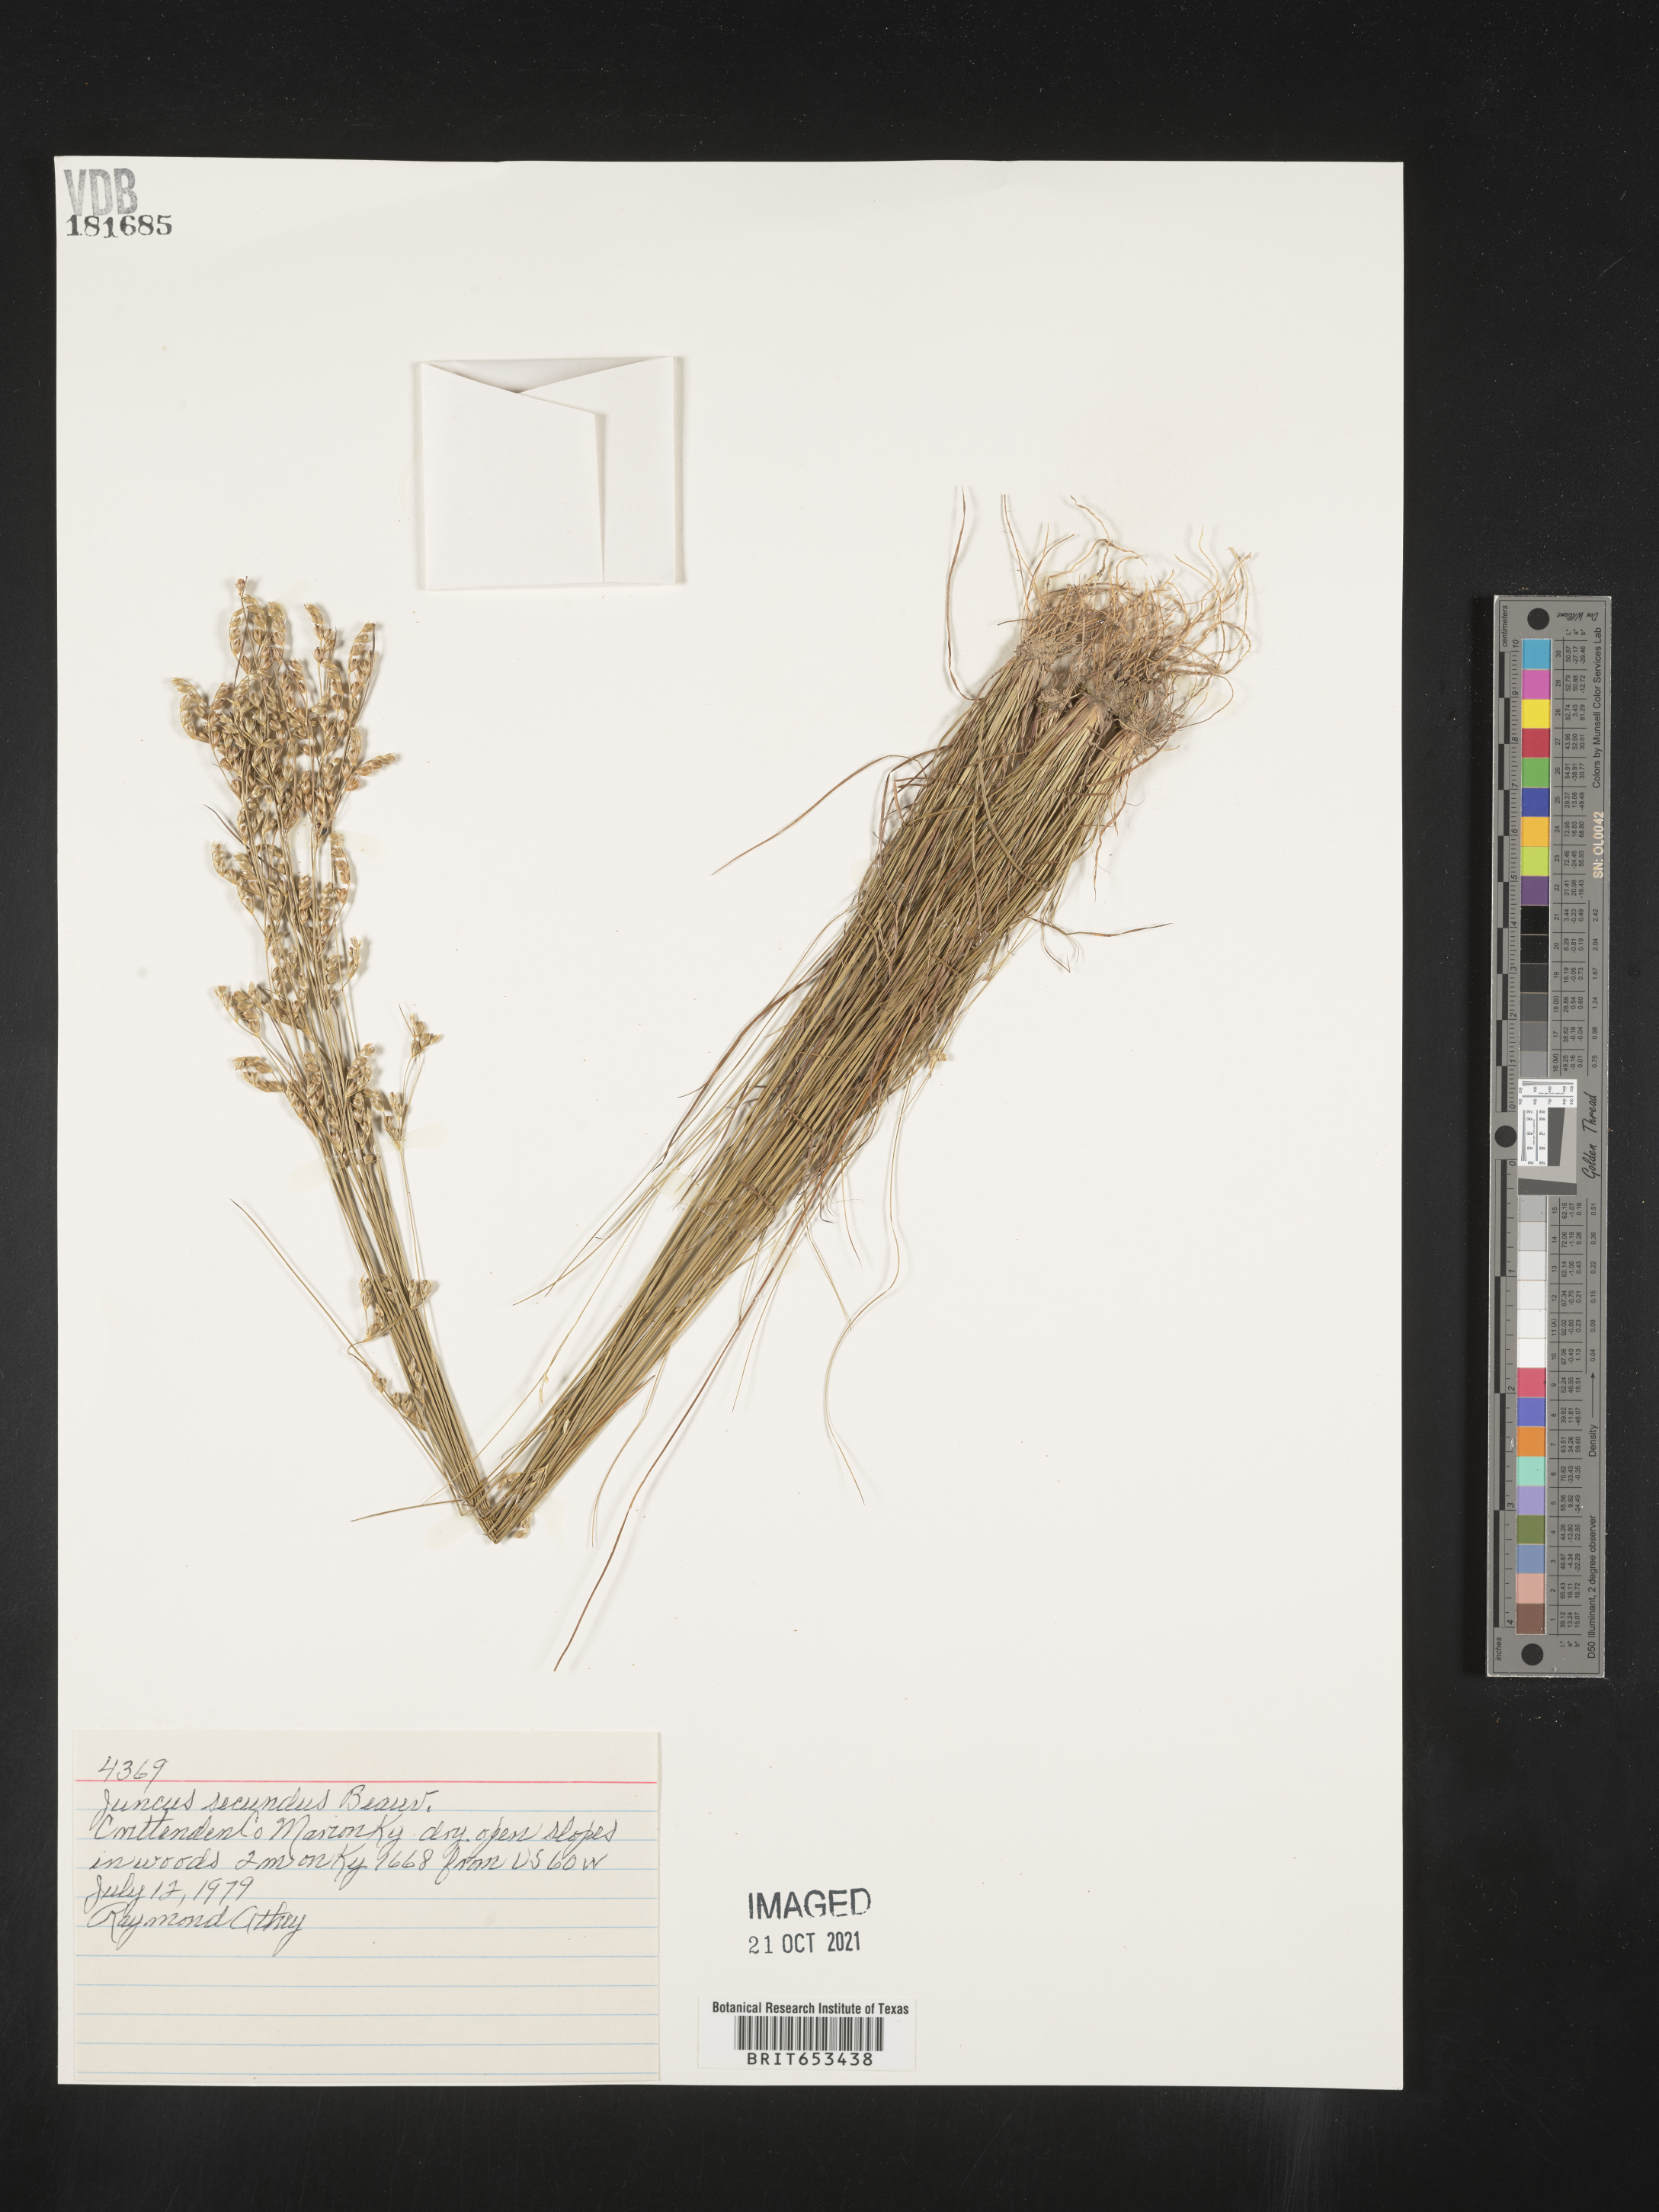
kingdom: Plantae
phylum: Tracheophyta
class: Liliopsida
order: Poales
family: Juncaceae
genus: Juncus
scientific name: Juncus secundus
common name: Lopsided rush
